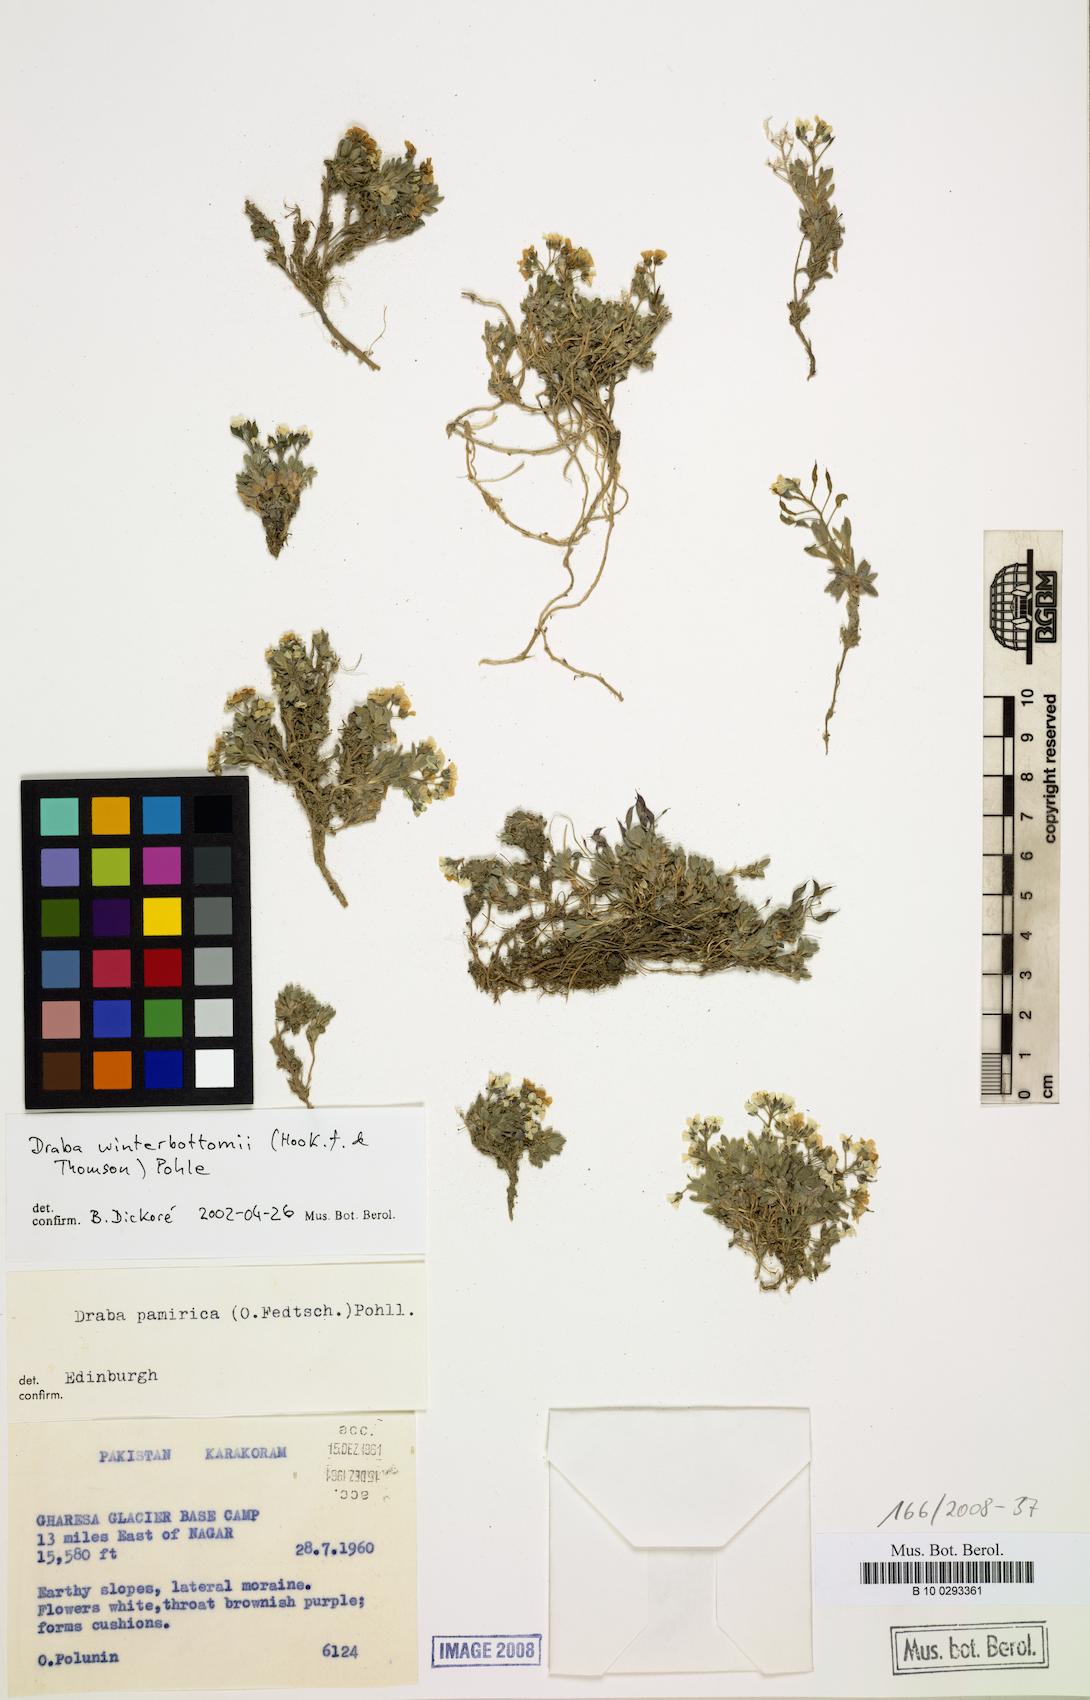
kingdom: Plantae
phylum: Tracheophyta
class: Magnoliopsida
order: Brassicales
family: Brassicaceae
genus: Draba
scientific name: Draba winterbottomii
